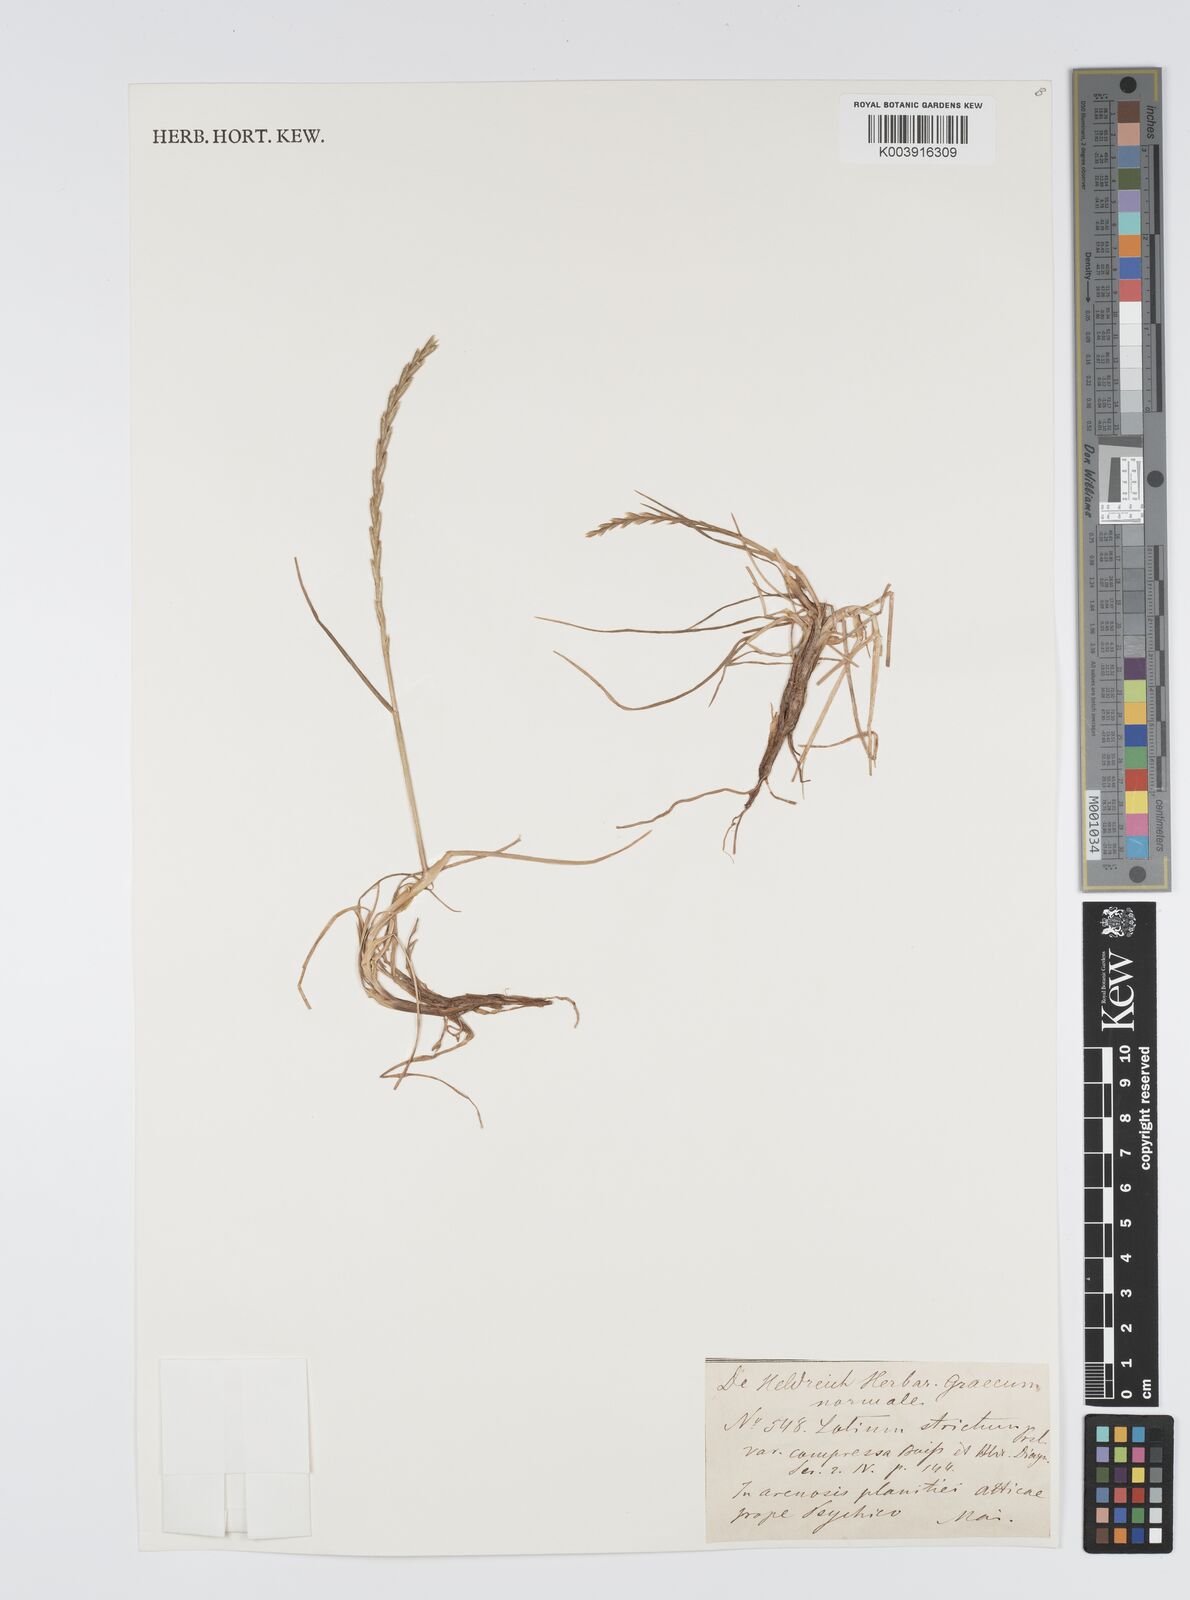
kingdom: Plantae
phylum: Tracheophyta
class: Liliopsida
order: Poales
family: Poaceae
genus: Lolium
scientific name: Lolium rigidum
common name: Wimmera ryegrass
